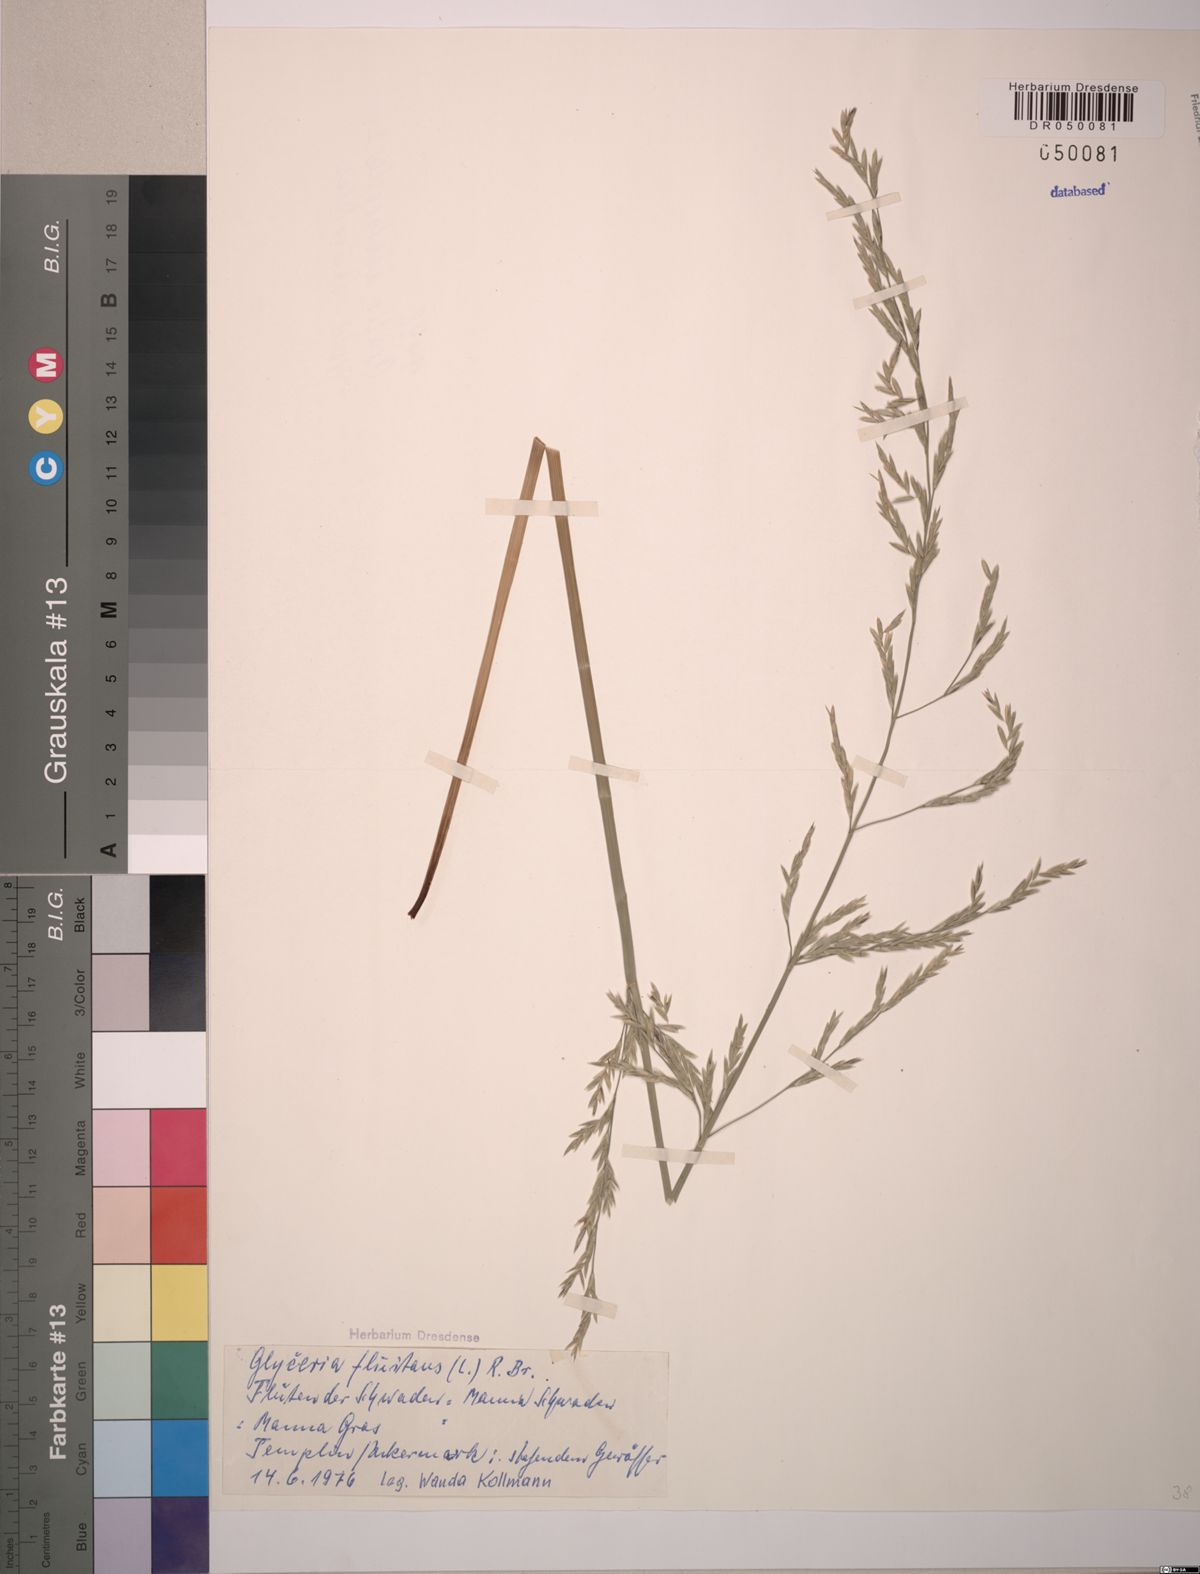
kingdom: Plantae
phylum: Tracheophyta
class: Liliopsida
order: Poales
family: Poaceae
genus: Glyceria
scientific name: Glyceria fluitans
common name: Floating sweet-grass
